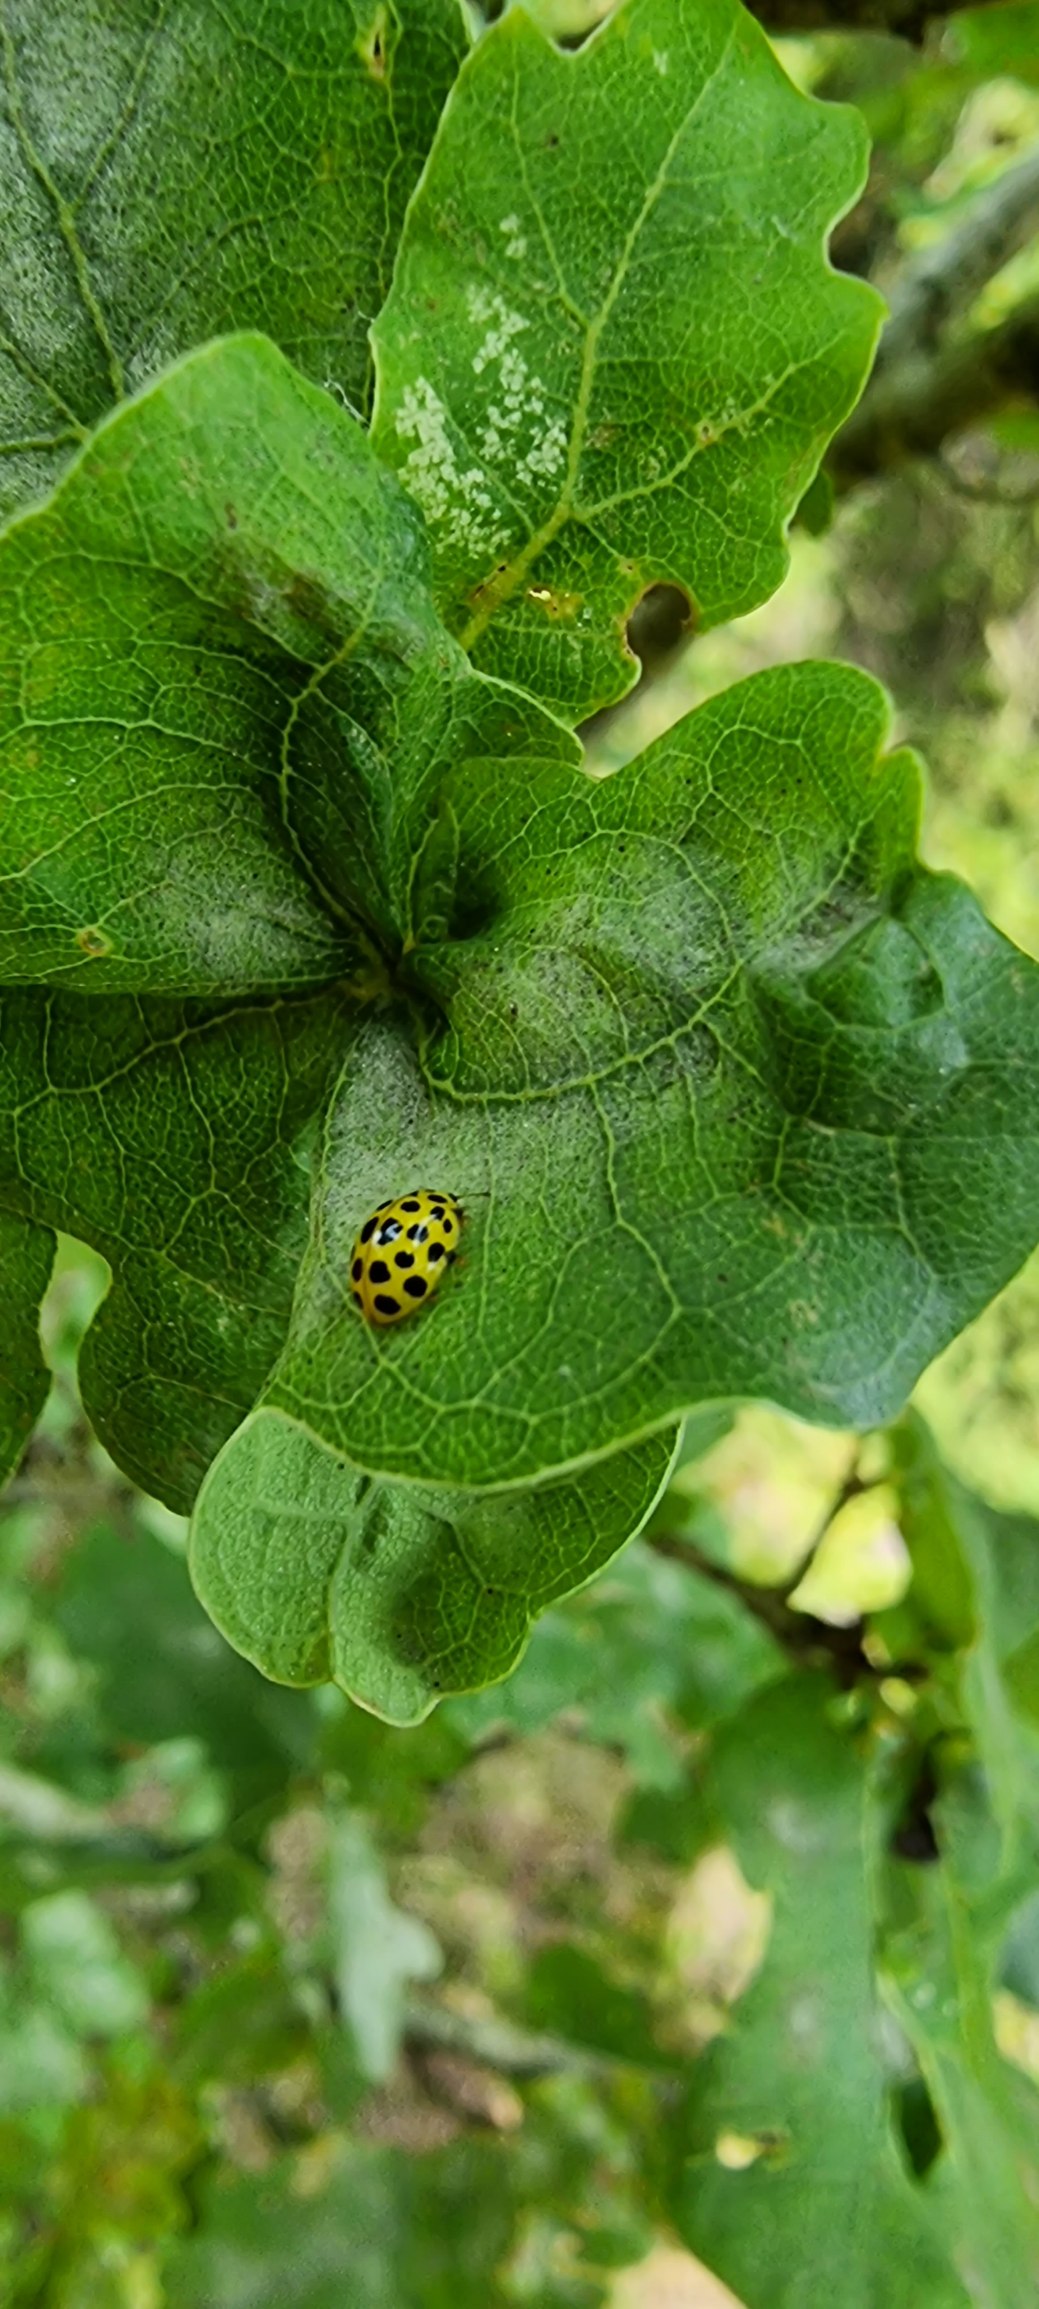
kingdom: Animalia
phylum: Arthropoda
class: Insecta
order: Coleoptera
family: Coccinellidae
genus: Psyllobora
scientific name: Psyllobora vigintiduopunctata
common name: Toogtyveplettet mariehøne
